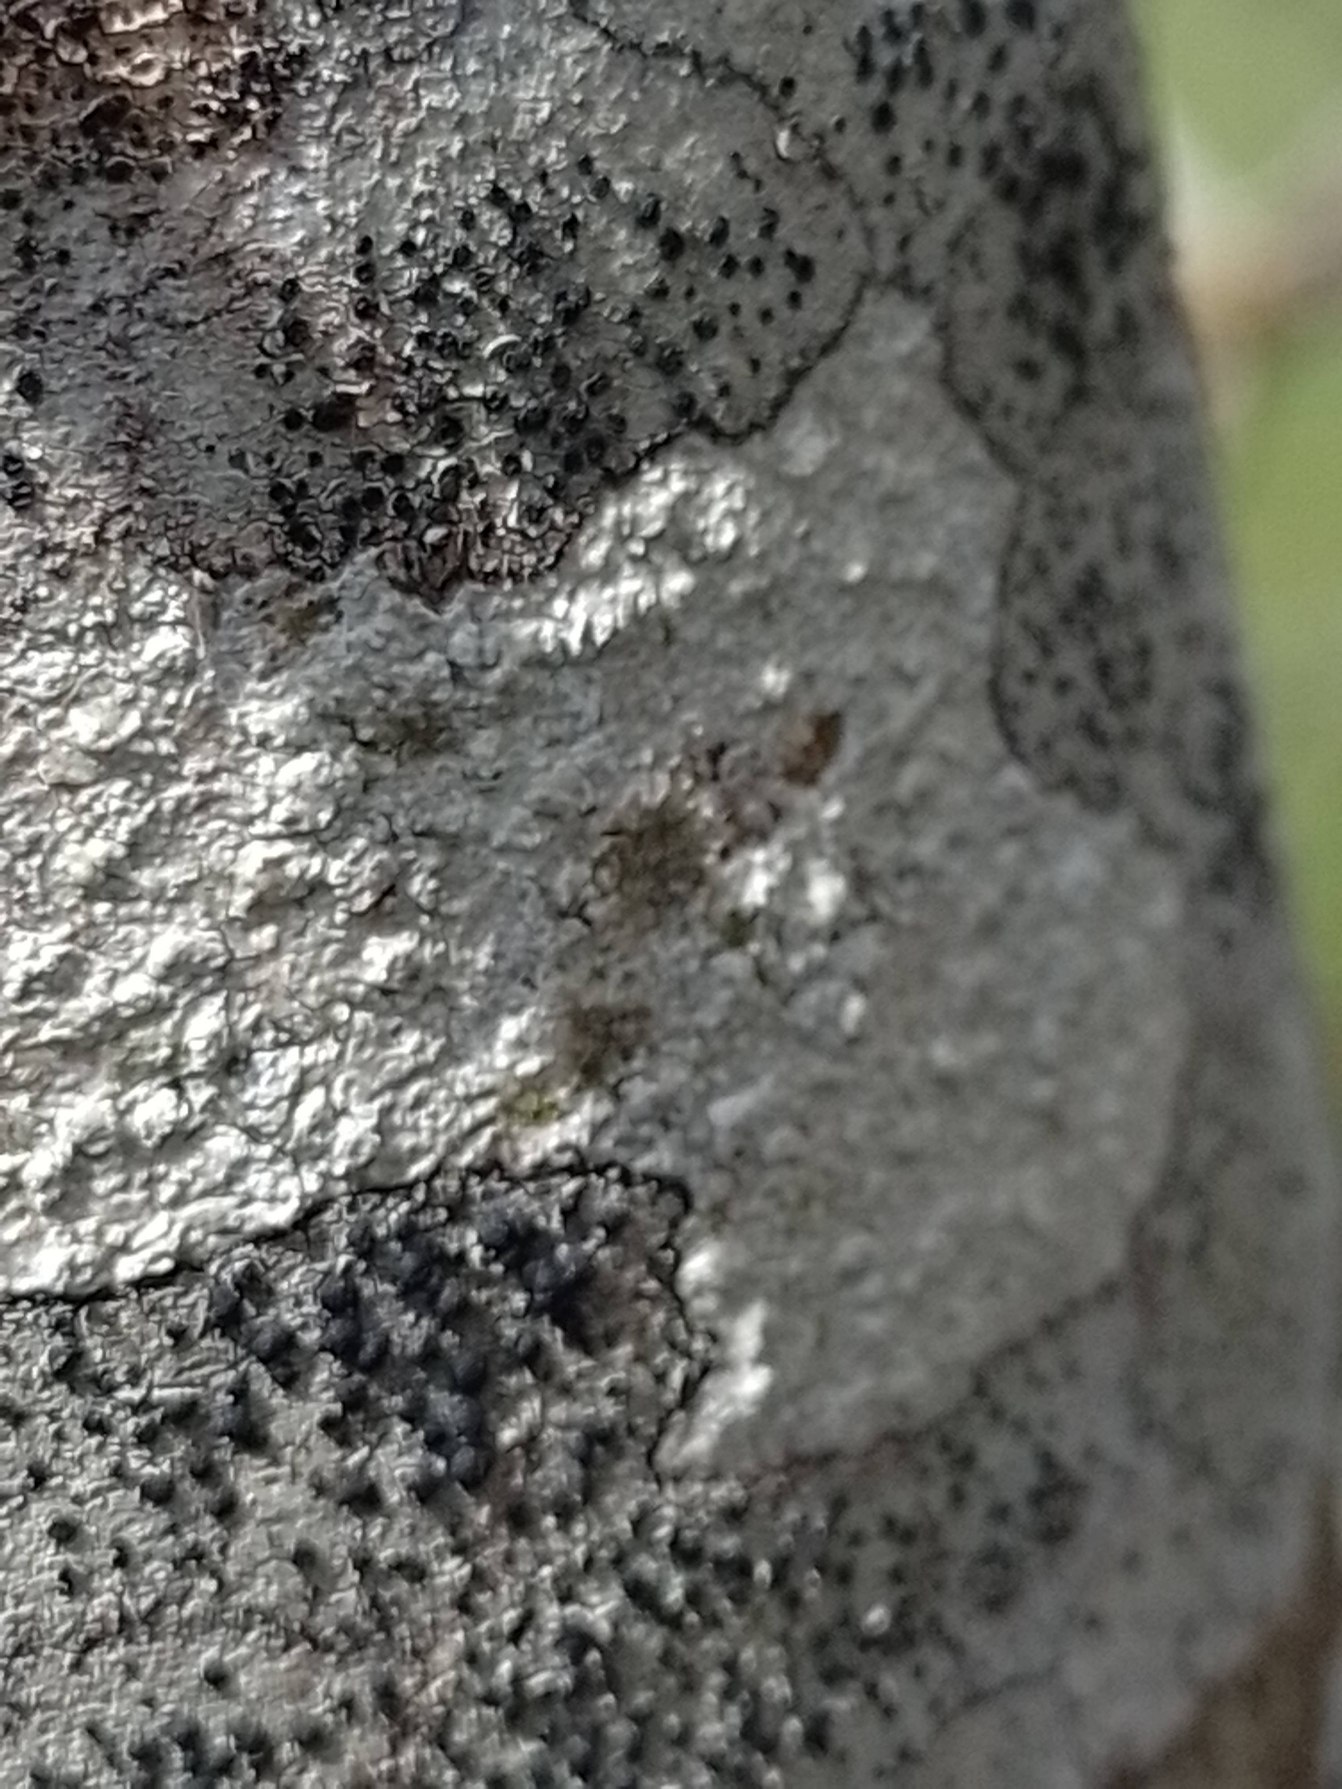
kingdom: Fungi
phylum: Ascomycota
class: Lecanoromycetes
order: Lecanorales
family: Lecanoraceae
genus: Lecidella
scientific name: Lecidella elaeochroma
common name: Grågrøn skivelav
